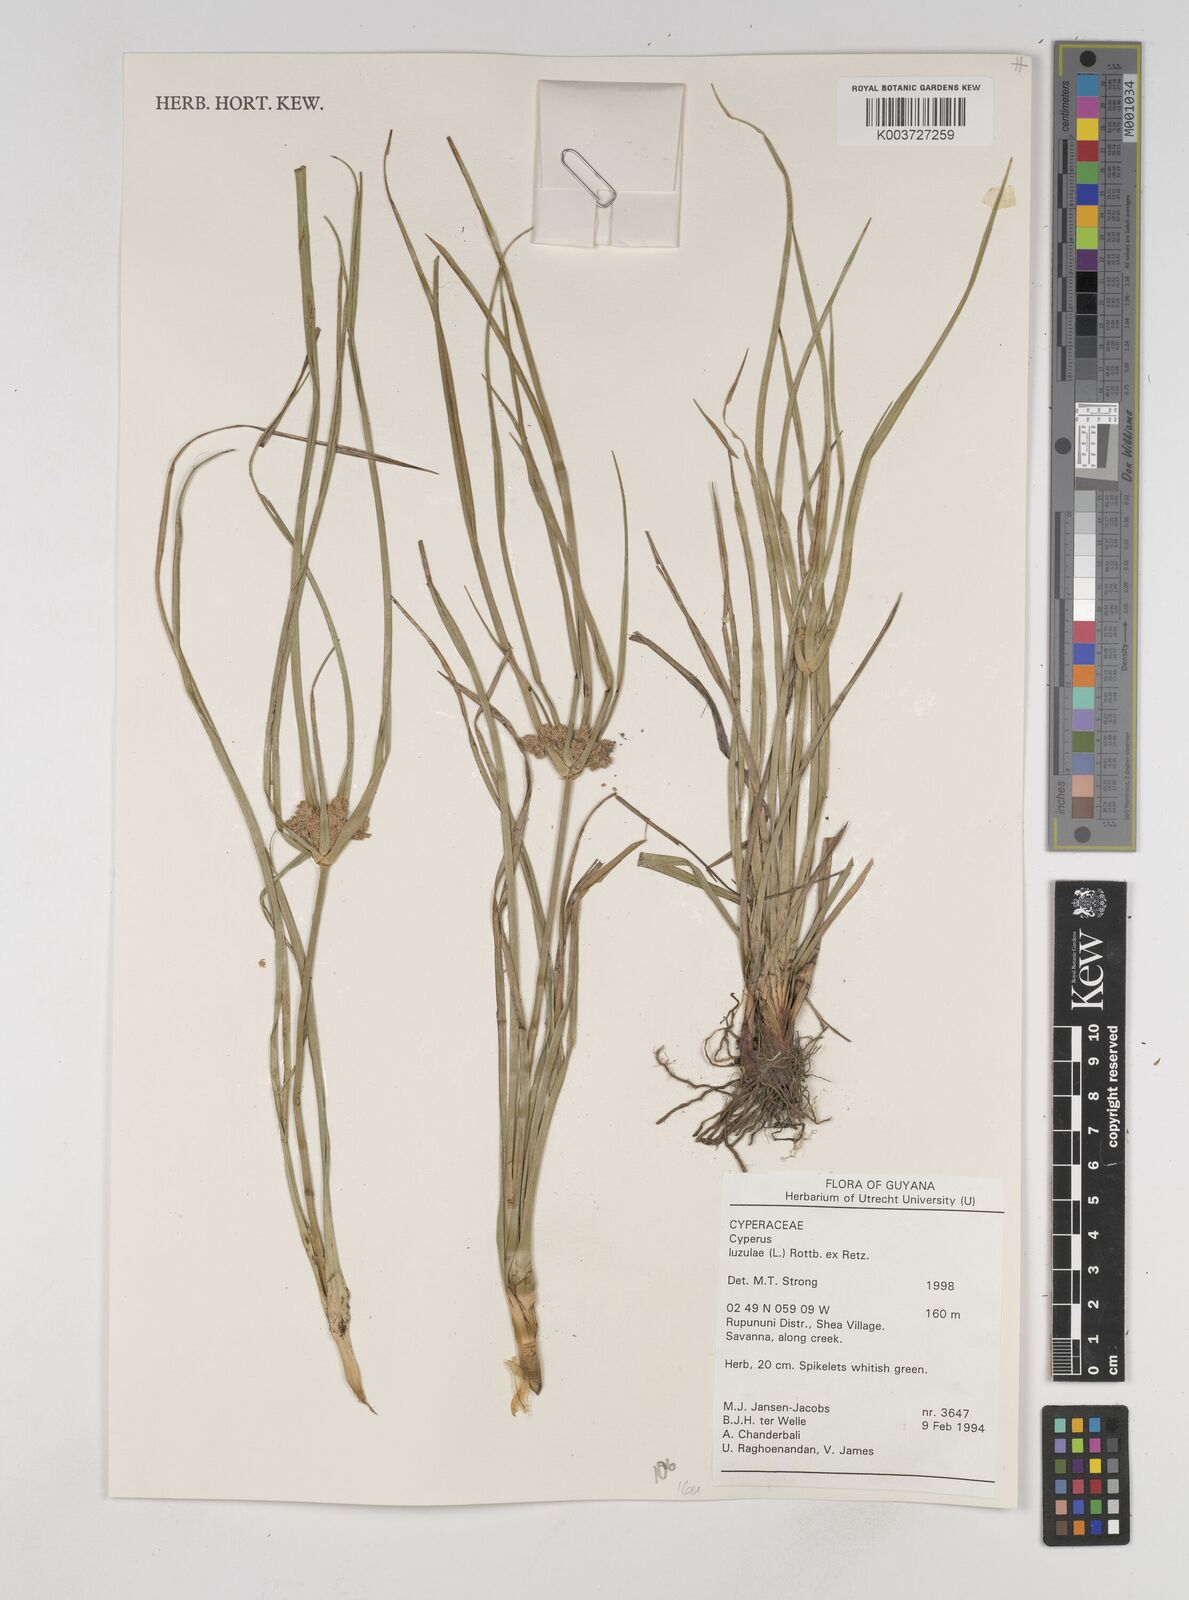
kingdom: Plantae
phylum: Tracheophyta
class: Liliopsida
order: Poales
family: Cyperaceae
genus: Cyperus
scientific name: Cyperus luzulae
